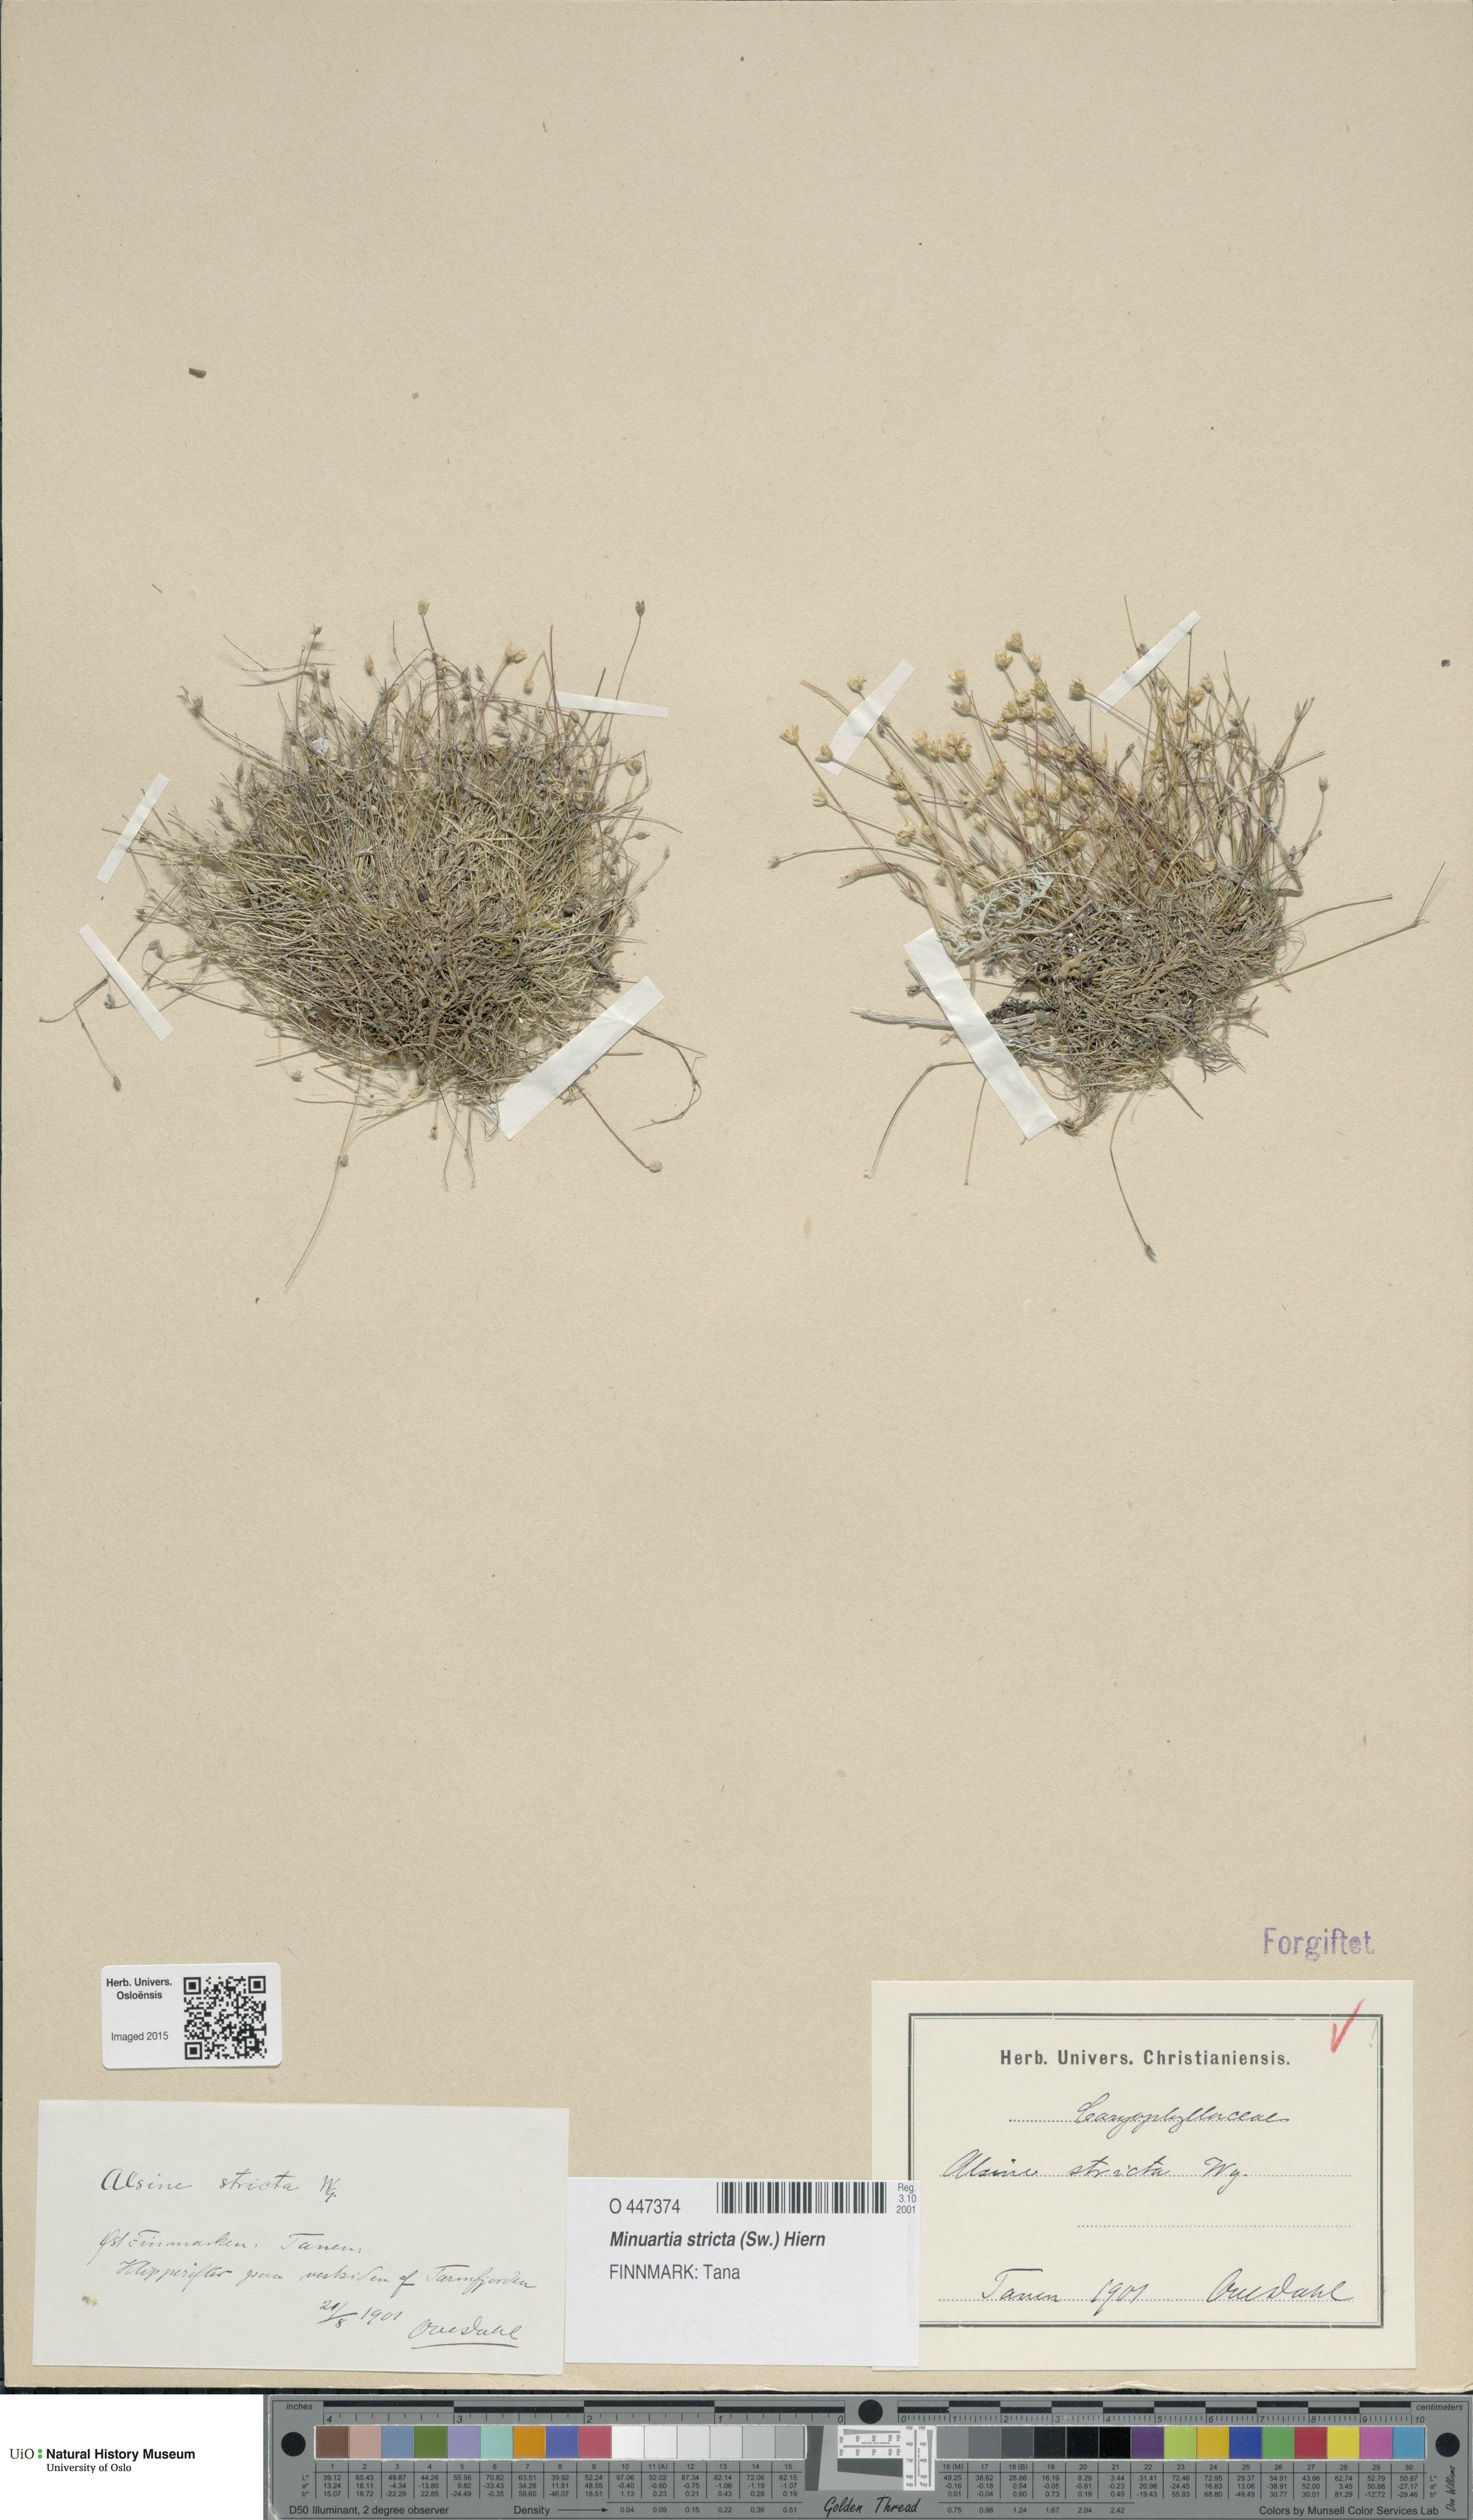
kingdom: Plantae
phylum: Tracheophyta
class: Magnoliopsida
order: Caryophyllales
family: Caryophyllaceae
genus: Sabulina
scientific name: Sabulina stricta
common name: Bog sandwort
